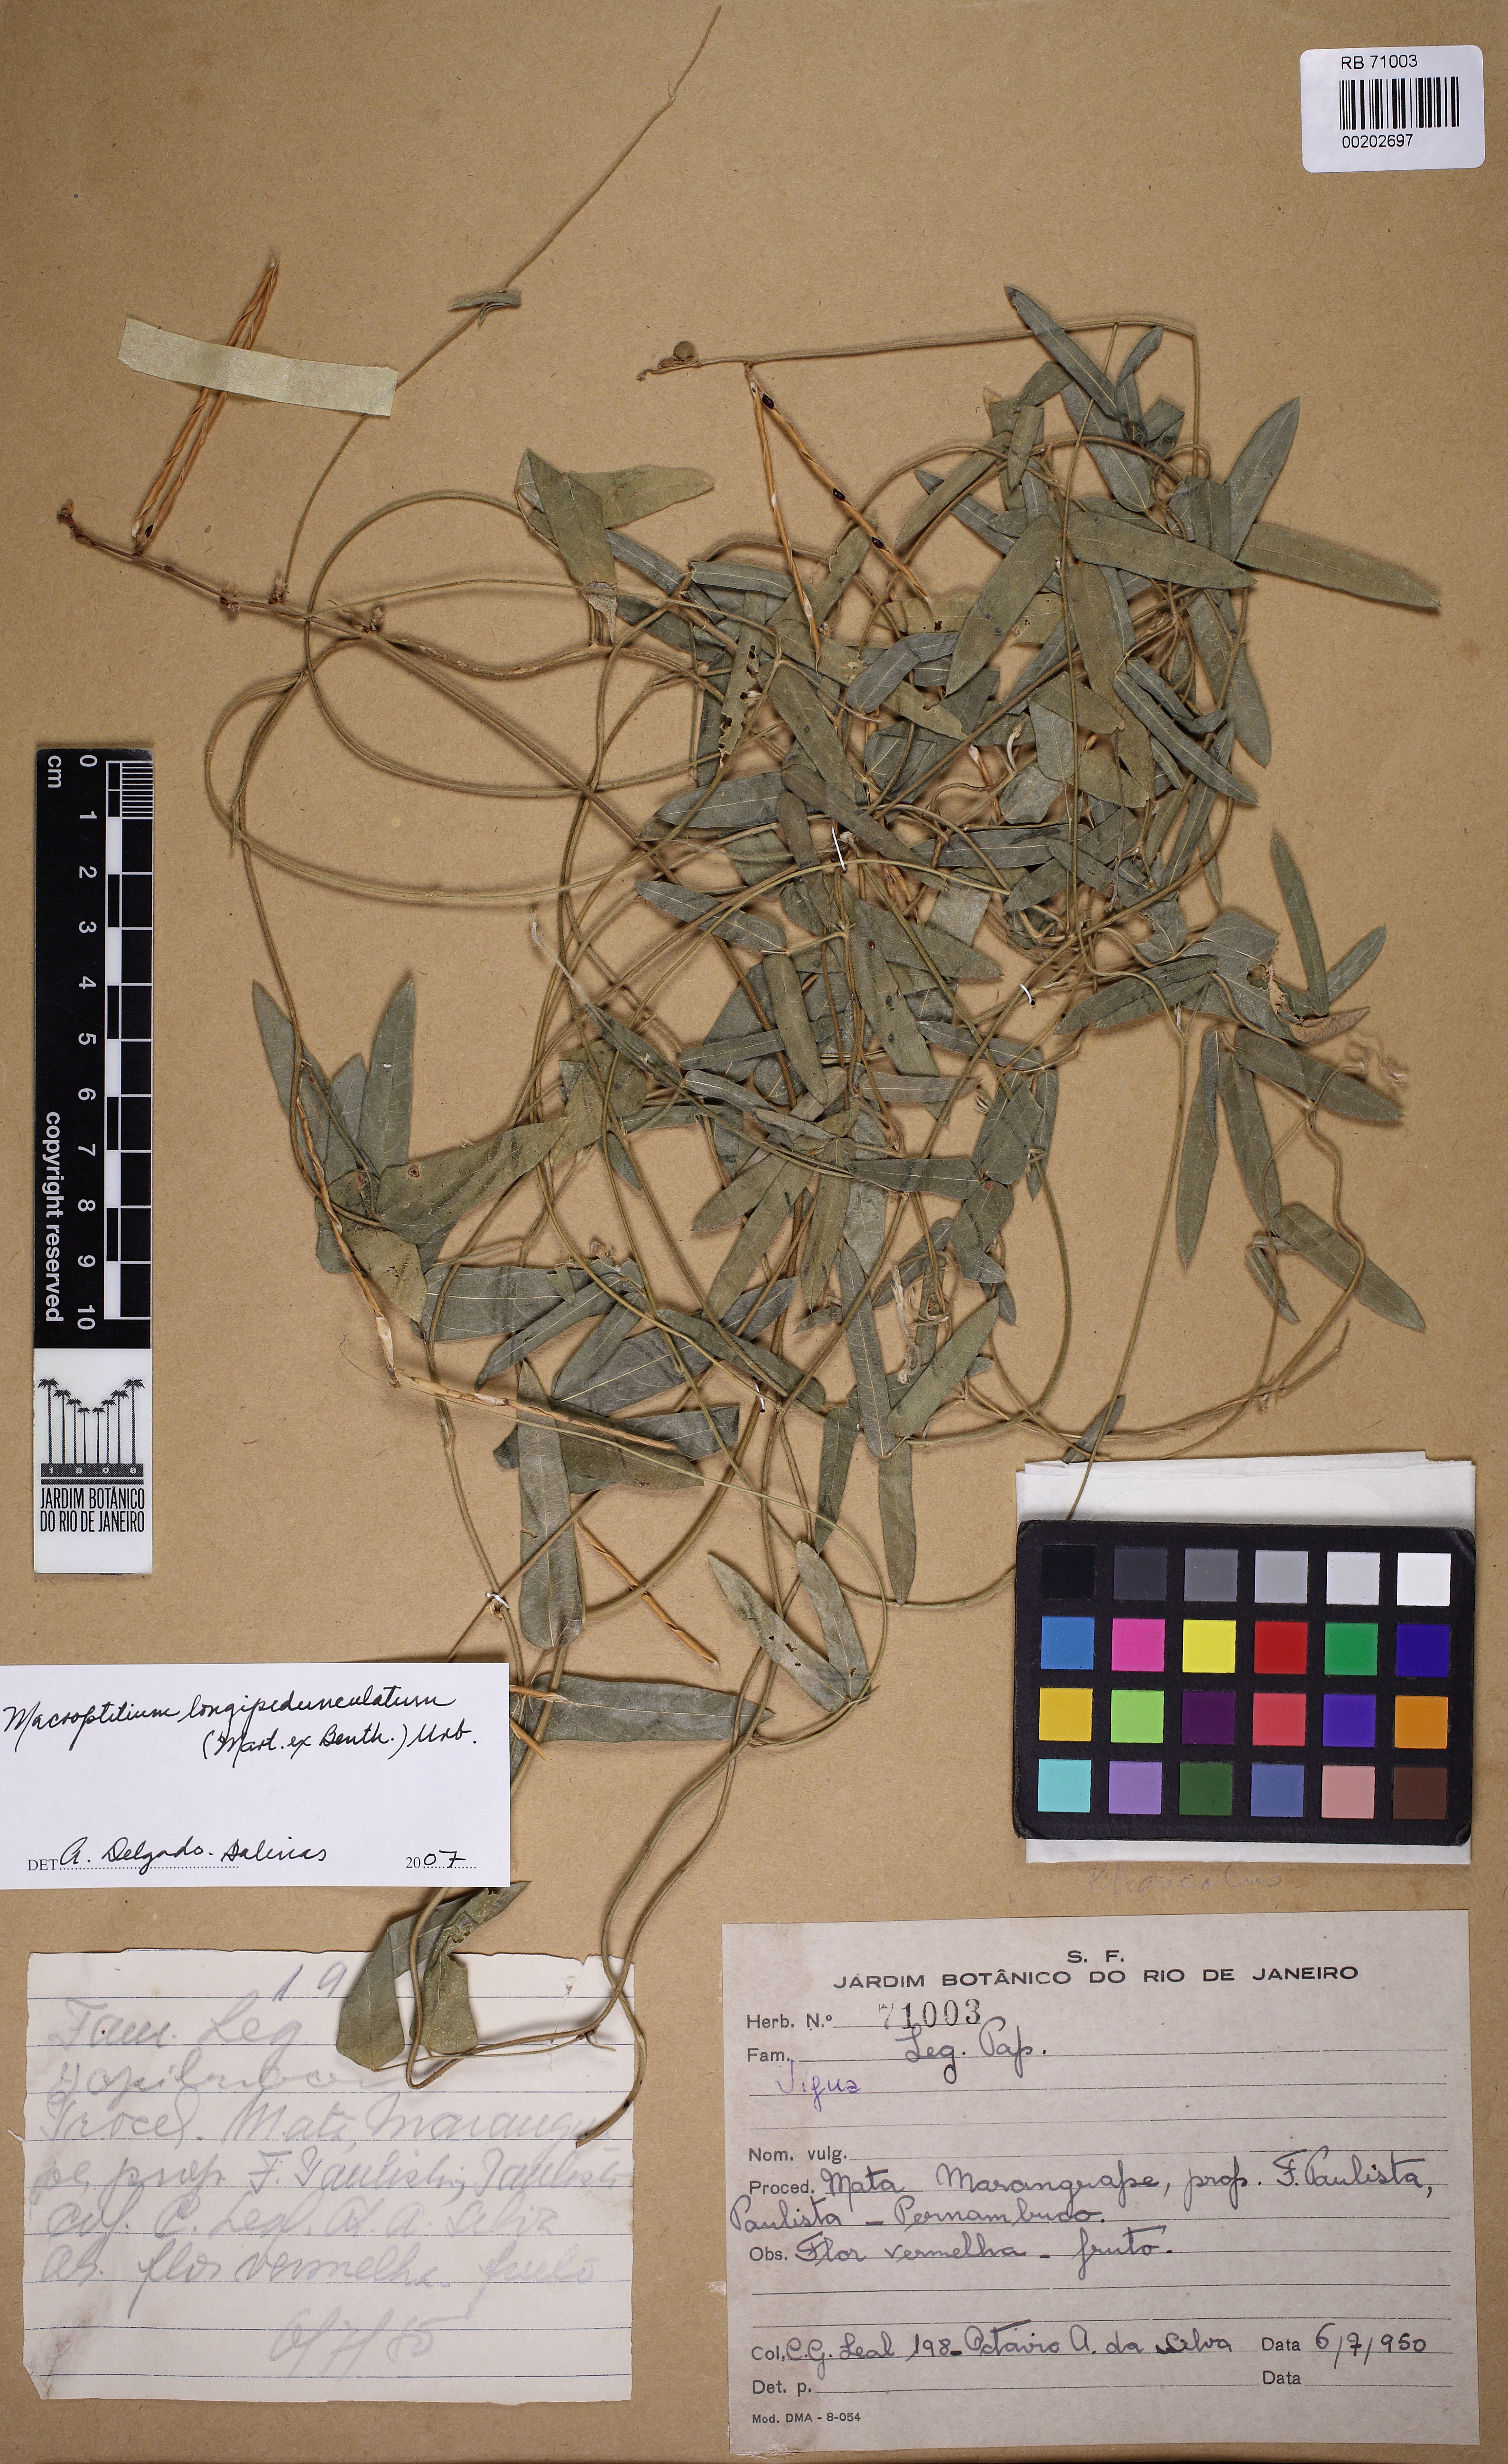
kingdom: Plantae
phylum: Tracheophyta
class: Magnoliopsida
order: Fabales
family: Fabaceae
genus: Macroptilium
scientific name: Macroptilium
